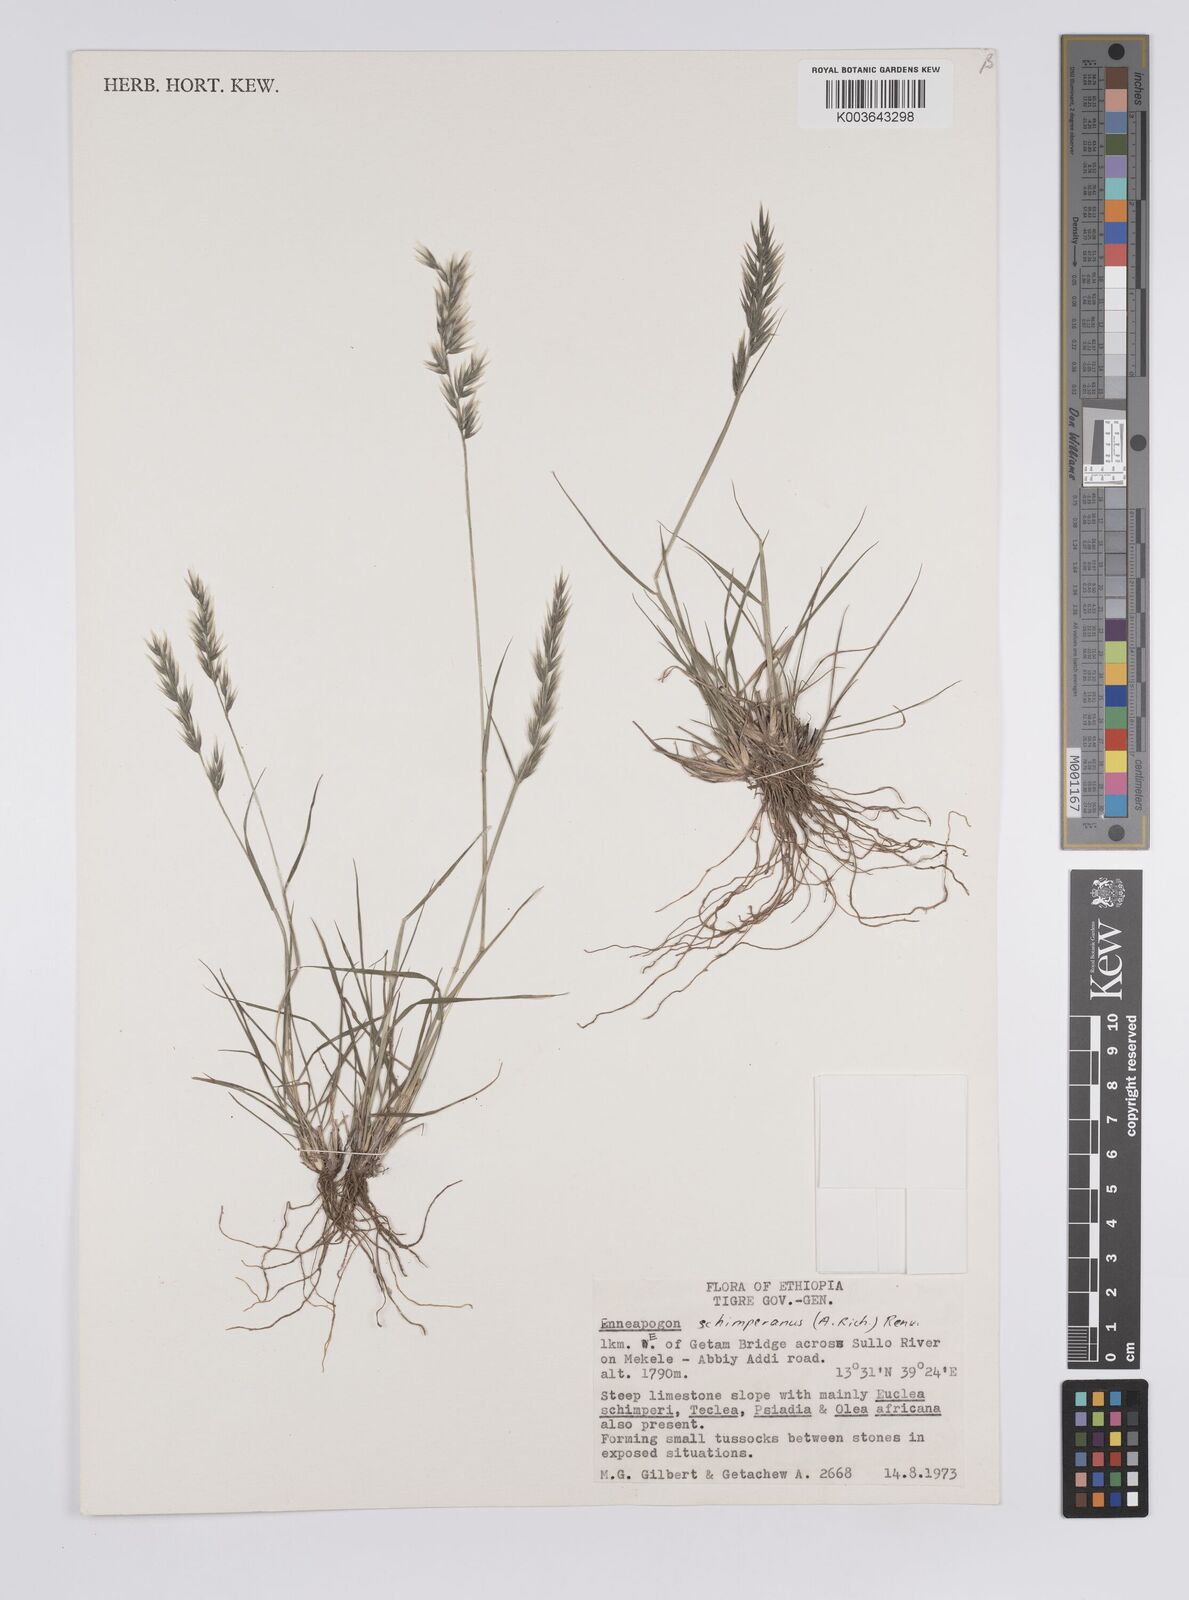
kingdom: Plantae
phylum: Tracheophyta
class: Liliopsida
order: Poales
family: Poaceae
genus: Enneapogon
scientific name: Enneapogon persicus
